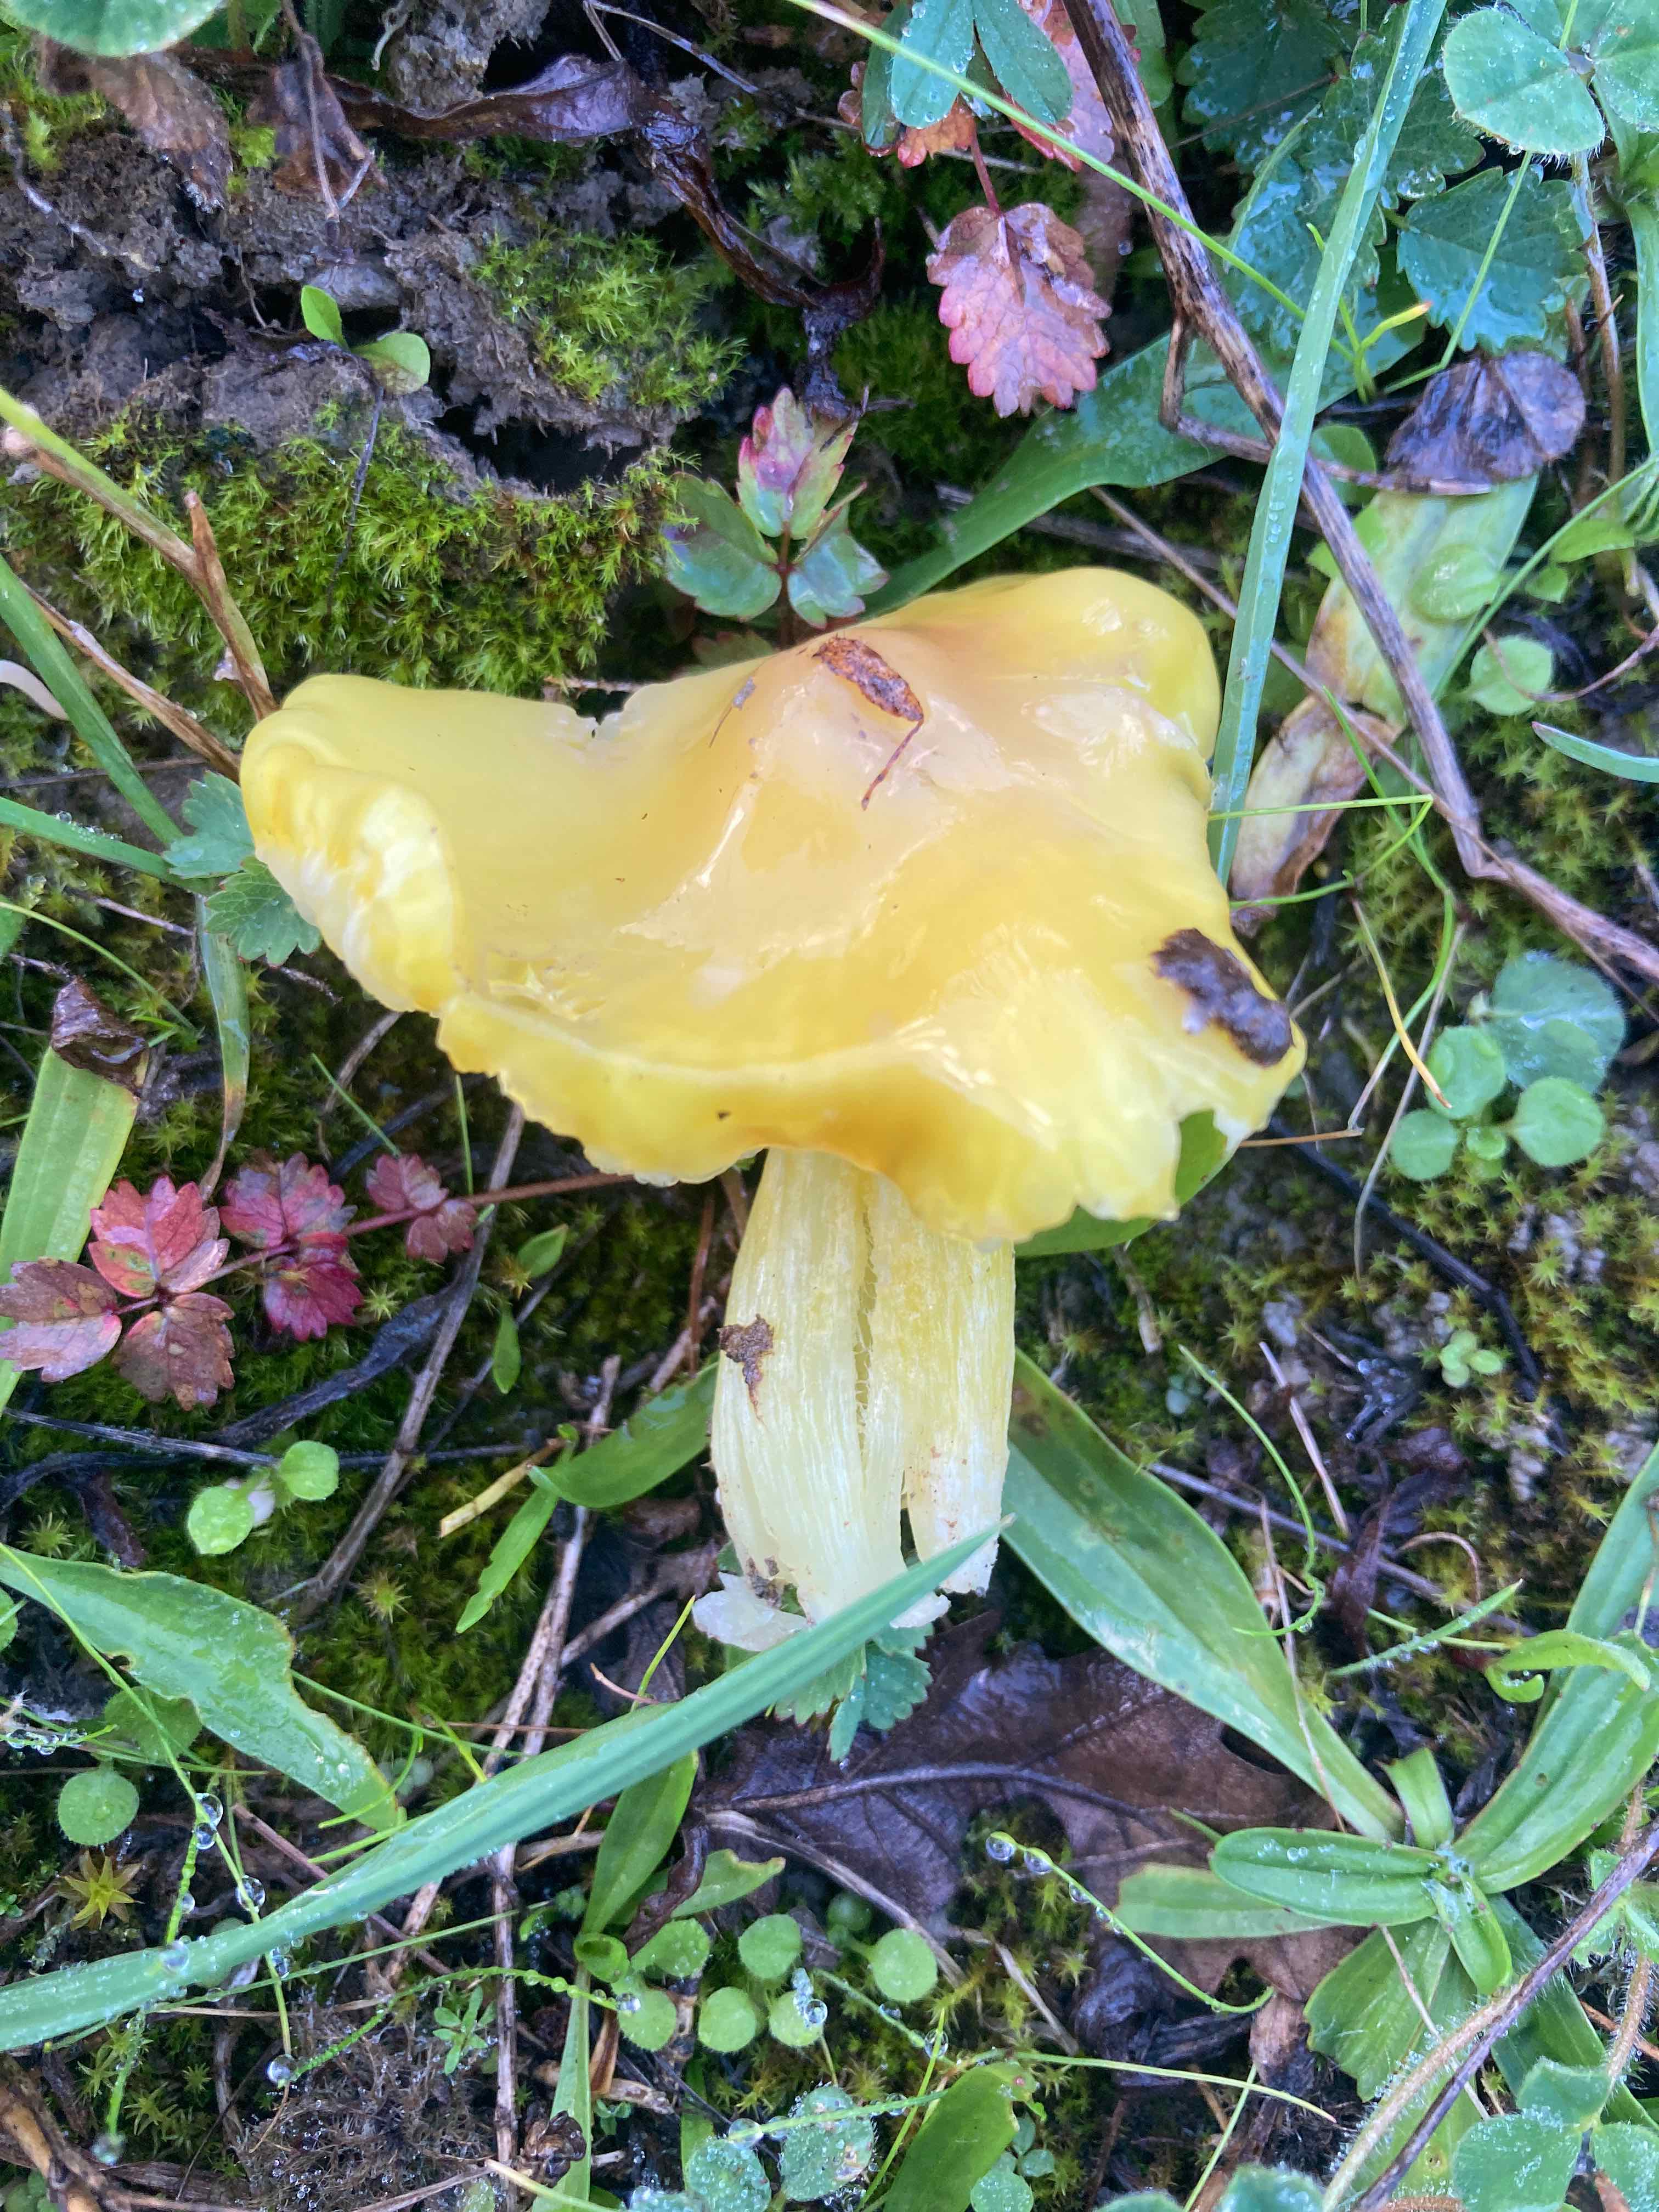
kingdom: Fungi
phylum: Basidiomycota
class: Agaricomycetes
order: Agaricales
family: Hygrophoraceae
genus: Hygrocybe
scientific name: Hygrocybe chlorophana
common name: gul vokshat
